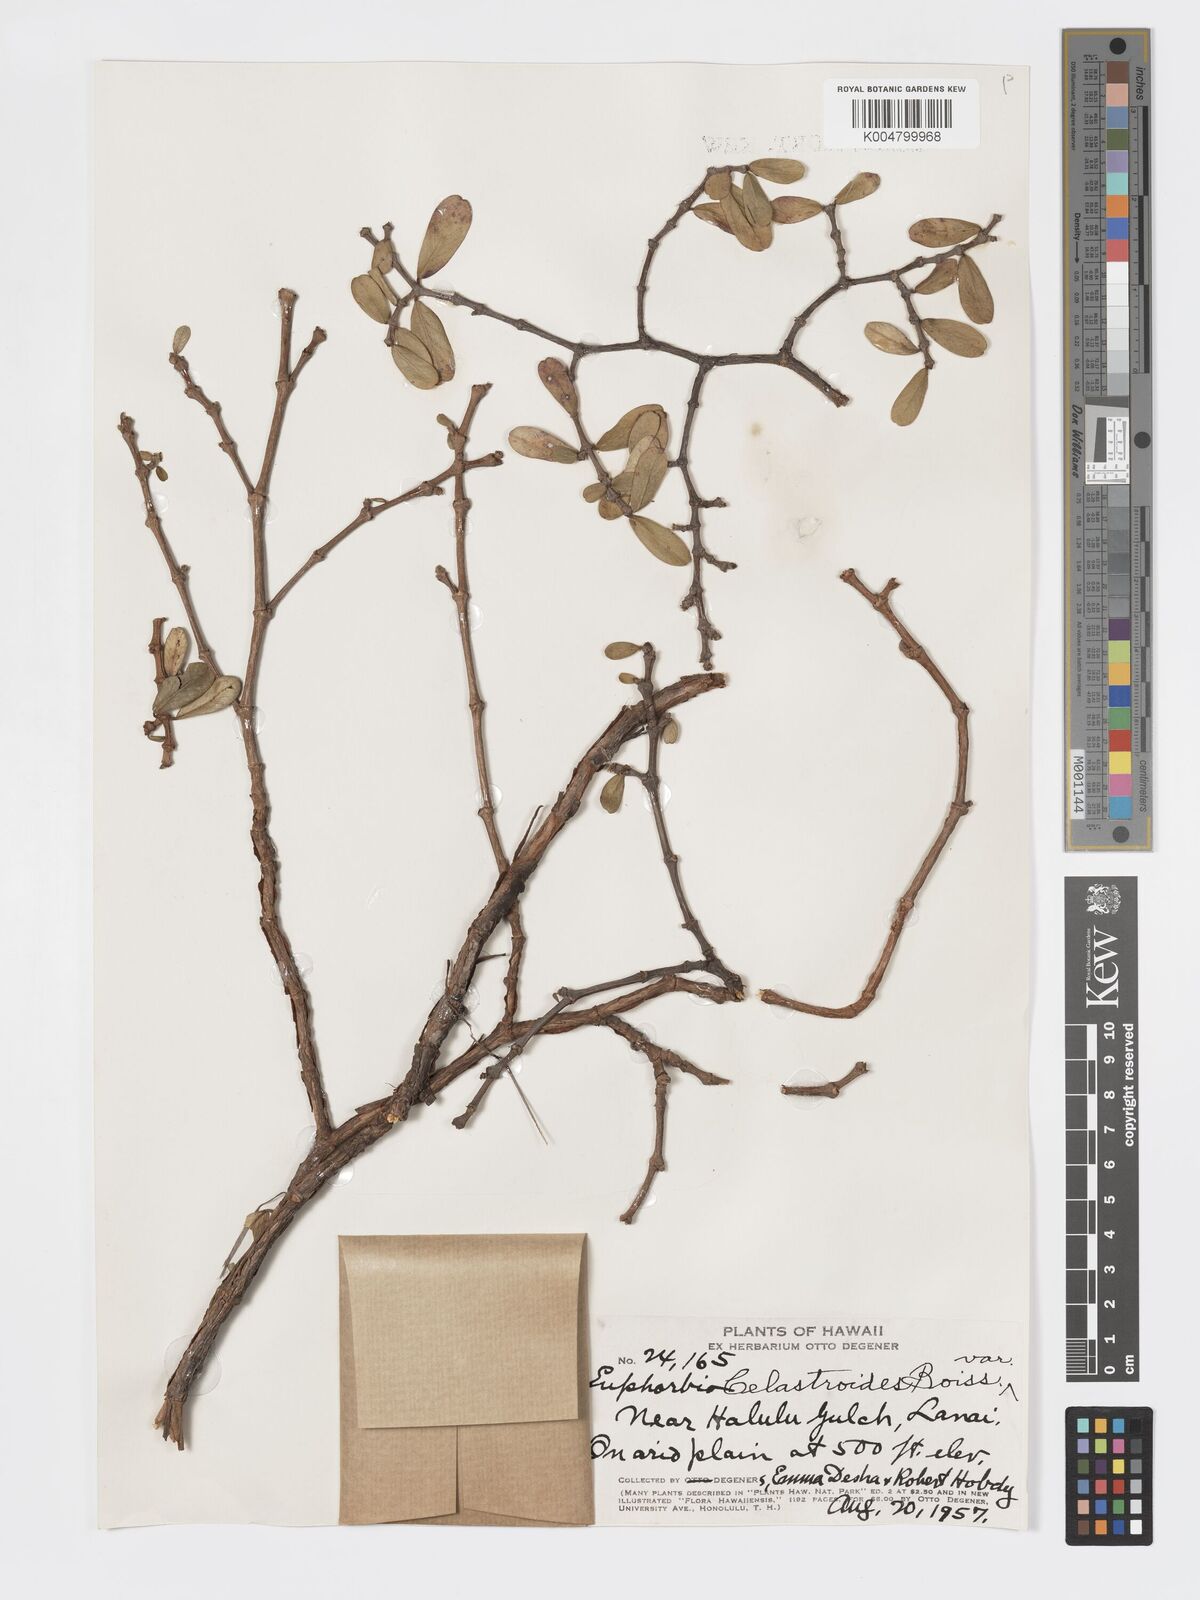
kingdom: Plantae
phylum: Tracheophyta
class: Magnoliopsida
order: Malpighiales
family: Euphorbiaceae
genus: Euphorbia
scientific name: Euphorbia celastroides
